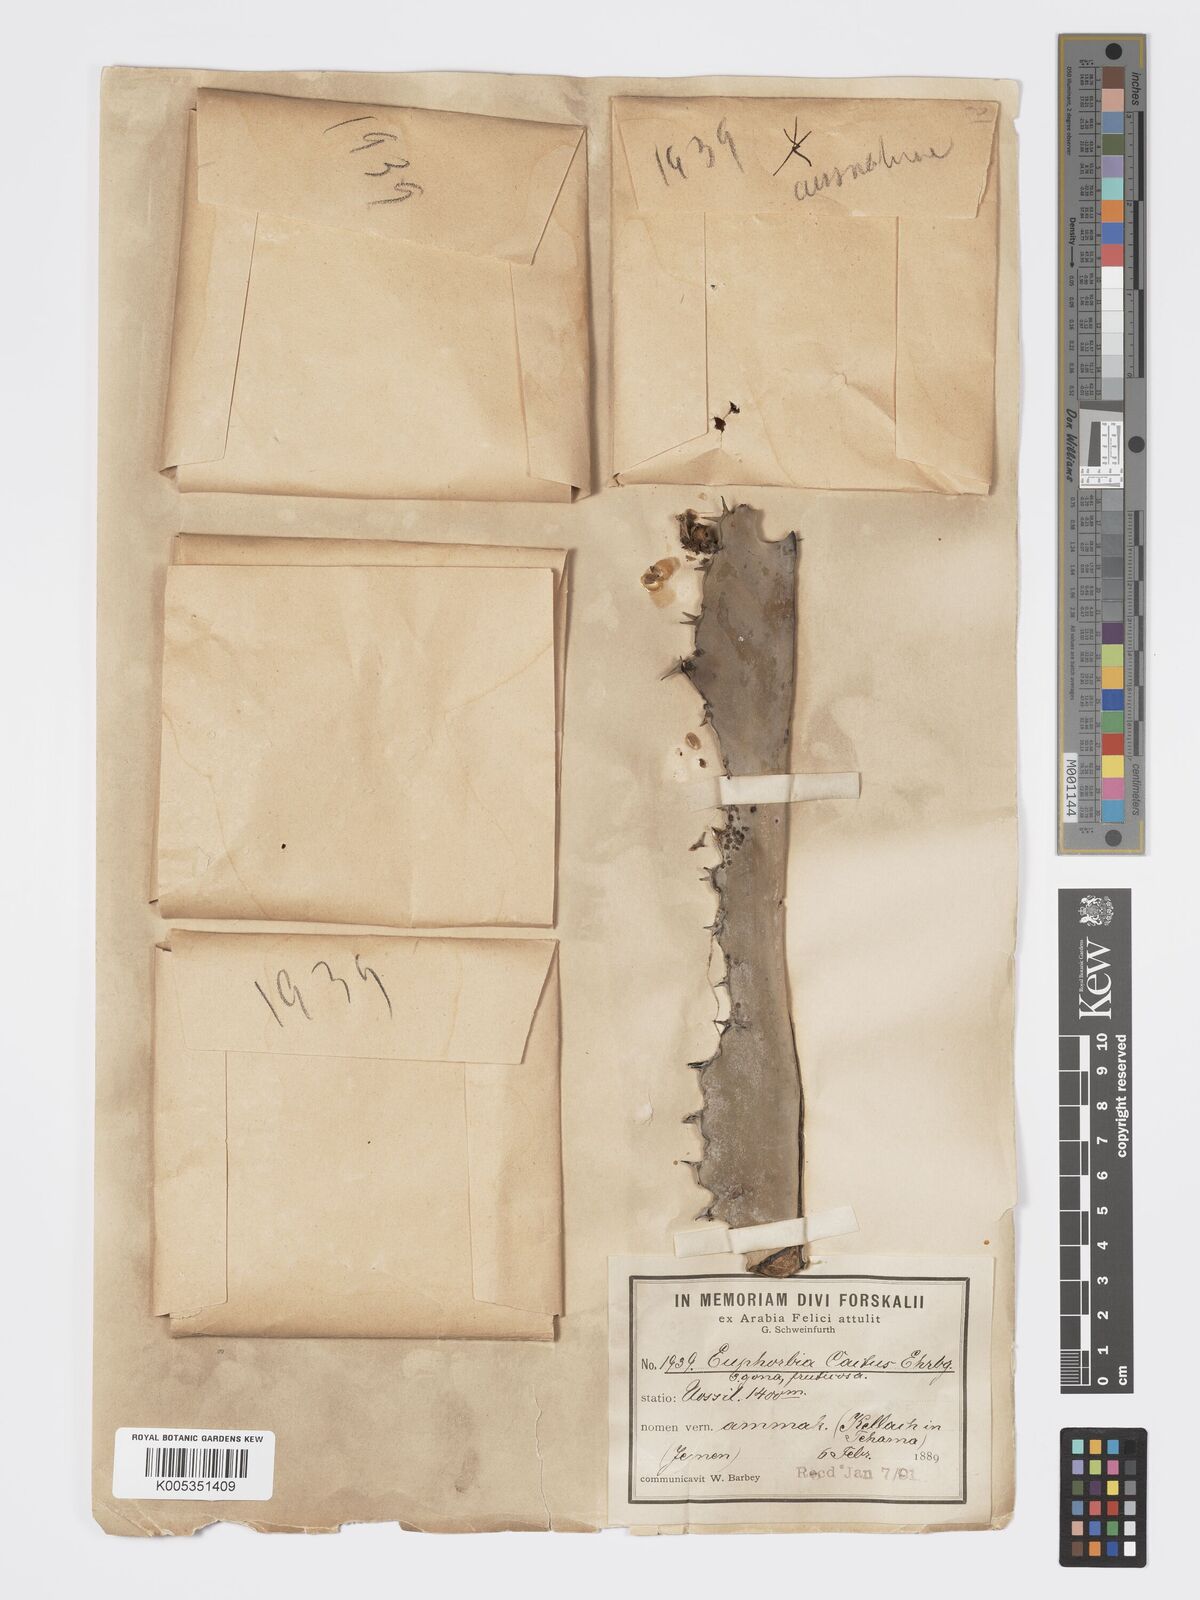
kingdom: Plantae
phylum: Tracheophyta
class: Magnoliopsida
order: Malpighiales
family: Euphorbiaceae
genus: Euphorbia
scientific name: Euphorbia ammak
